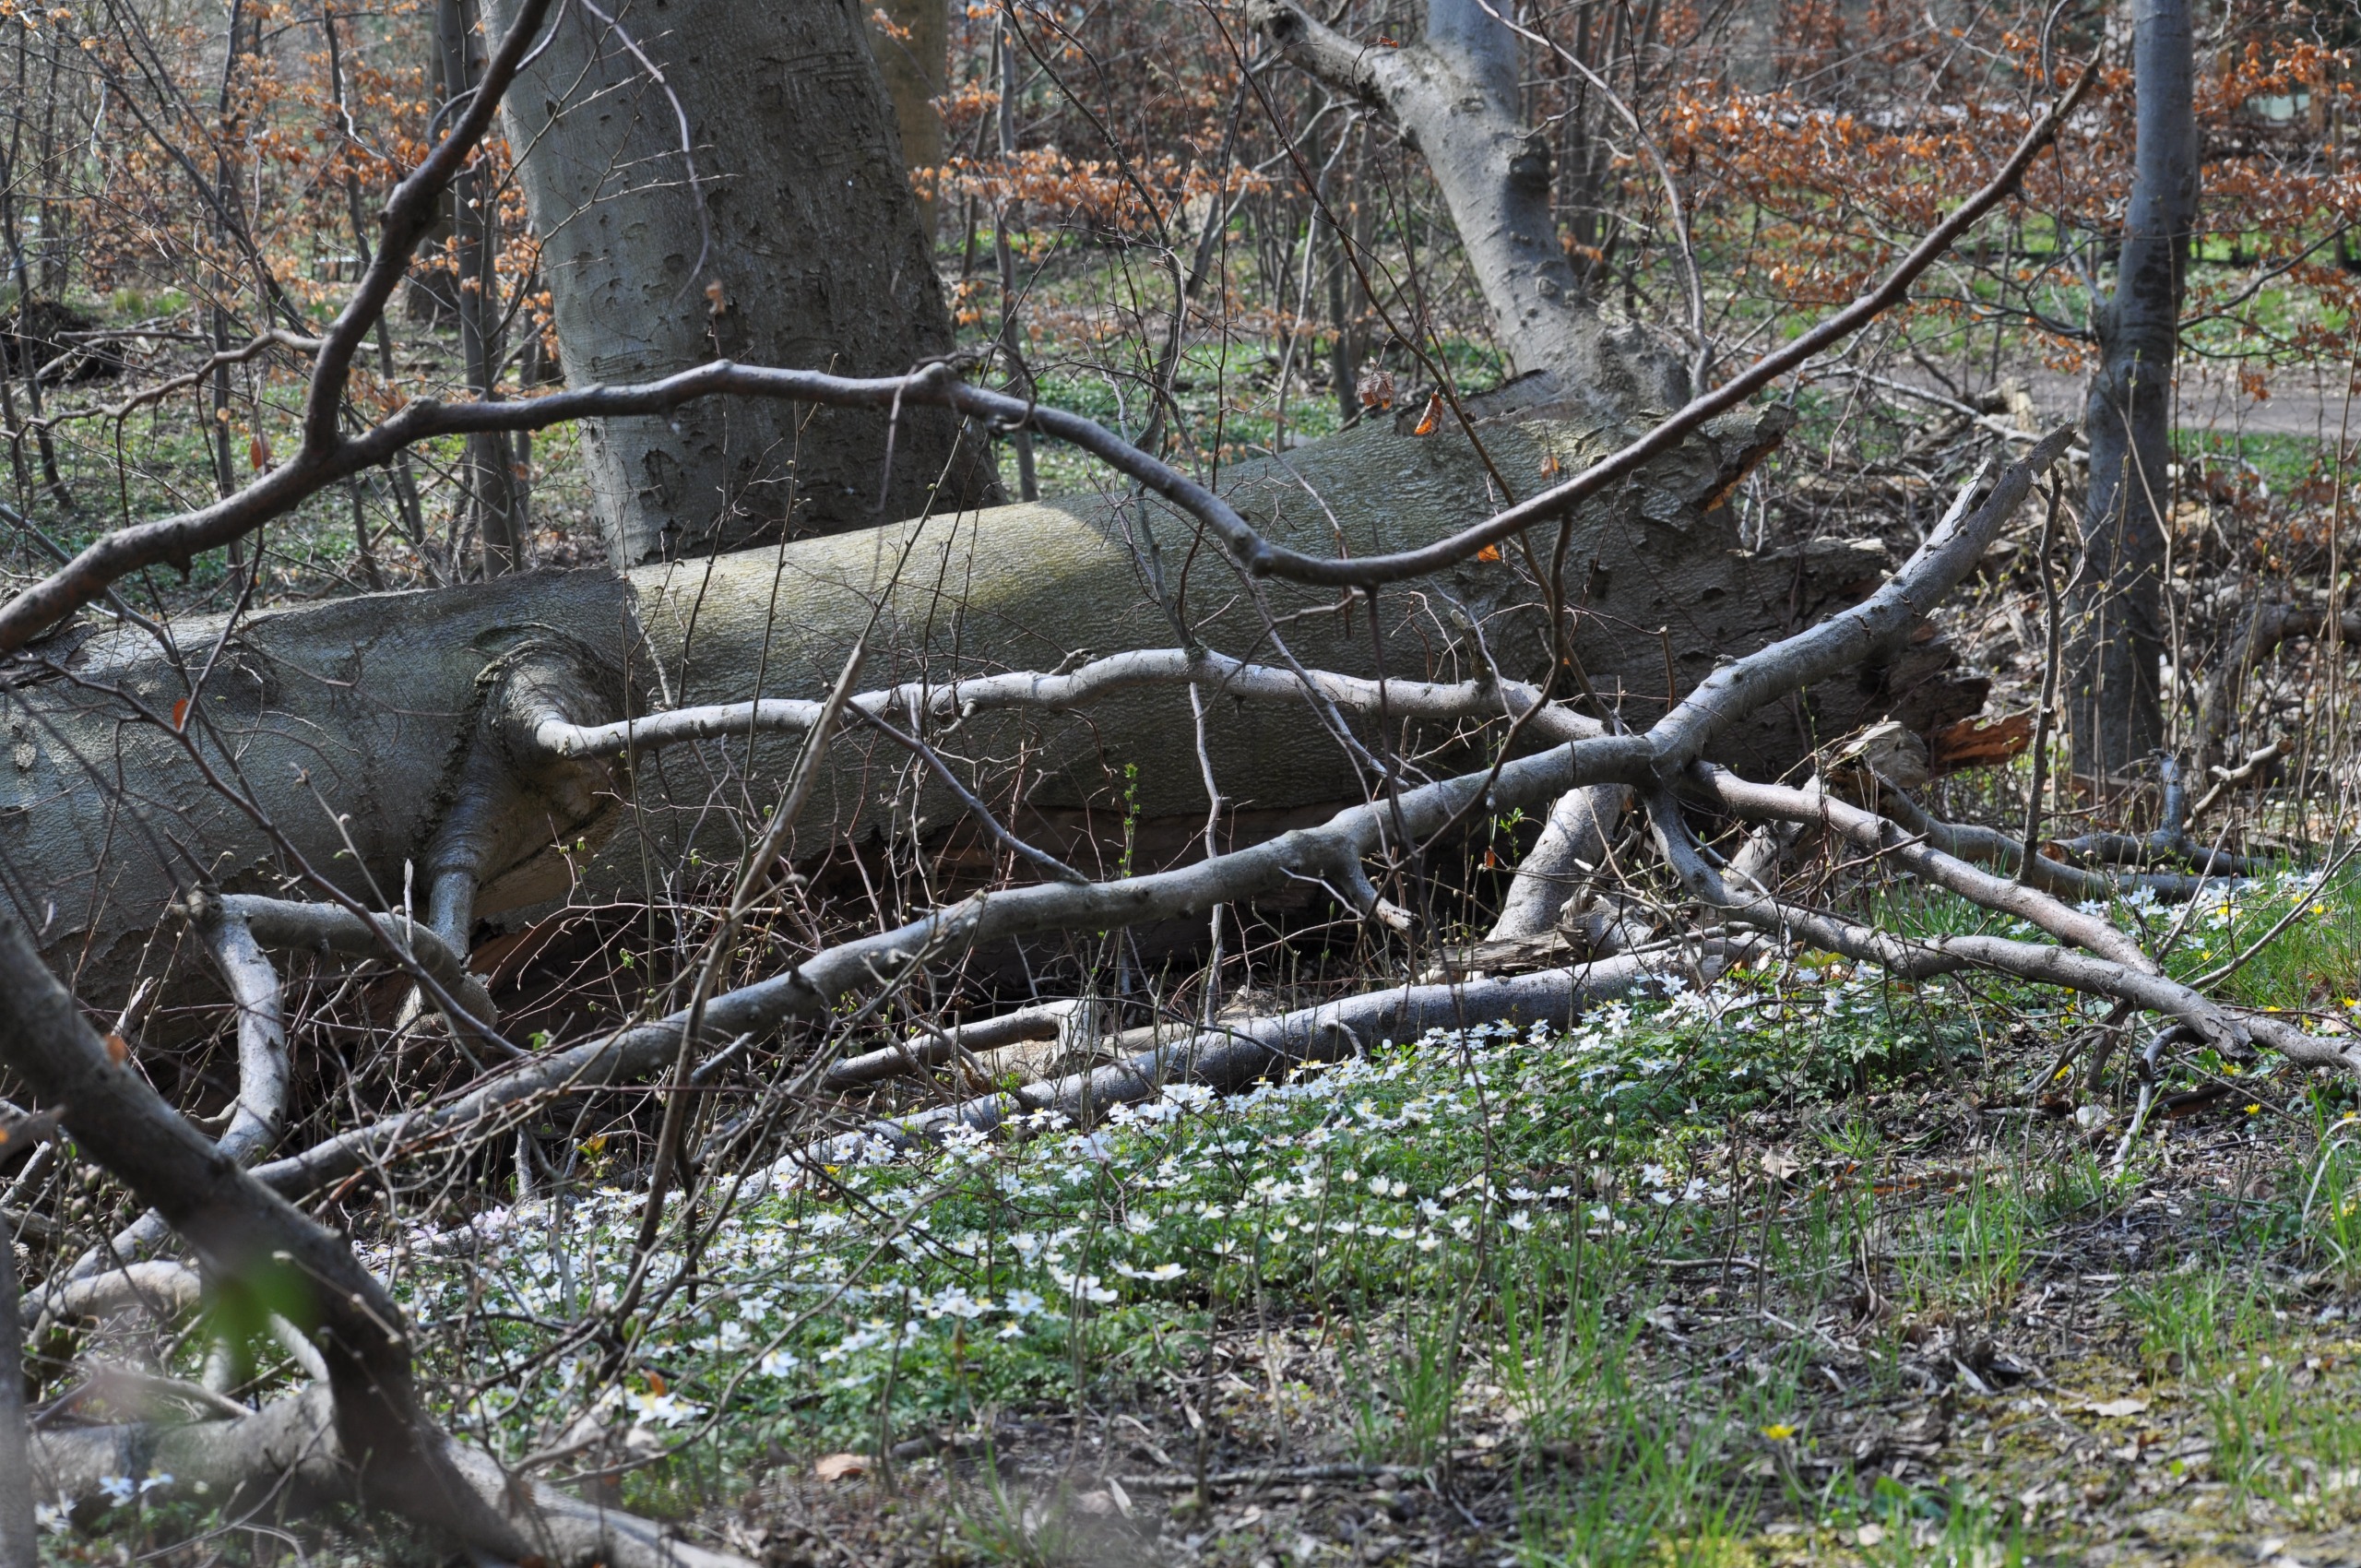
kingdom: Plantae
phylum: Tracheophyta
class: Magnoliopsida
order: Fagales
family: Fagaceae
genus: Fagus
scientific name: Fagus sylvatica
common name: Bøg
